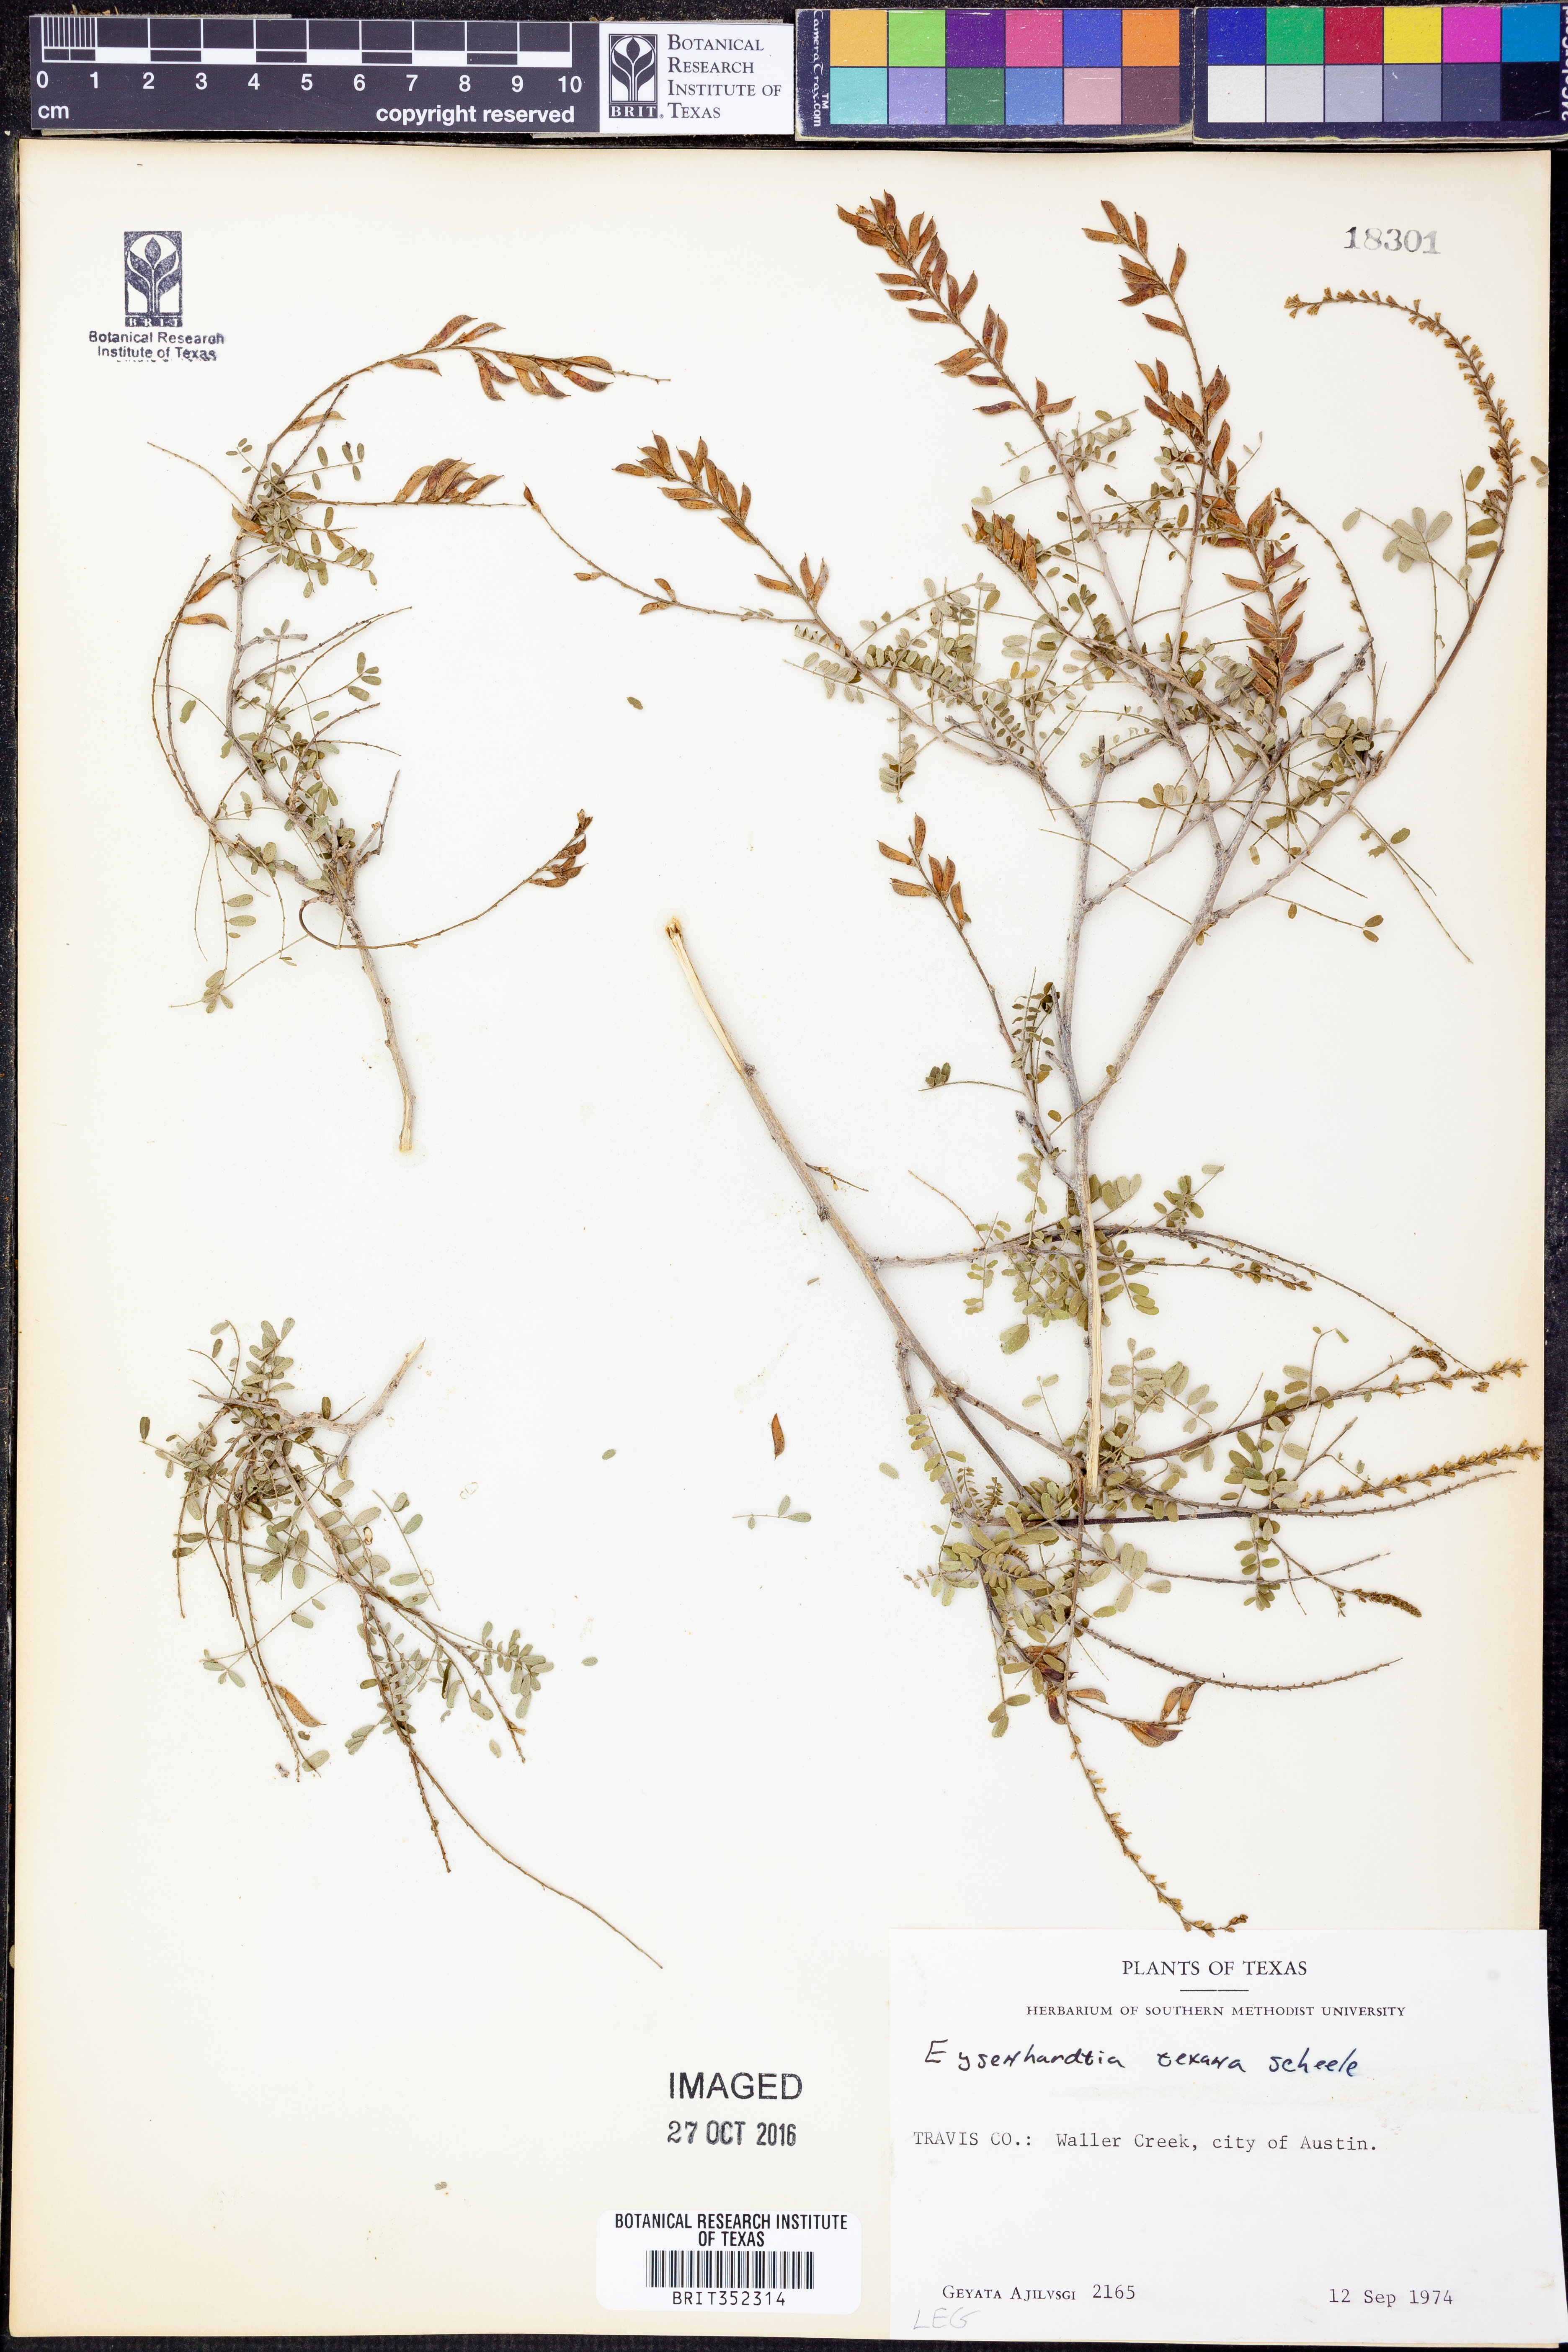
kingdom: Plantae
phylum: Tracheophyta
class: Magnoliopsida
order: Fabales
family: Fabaceae
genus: Eysenhardtia
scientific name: Eysenhardtia texana
